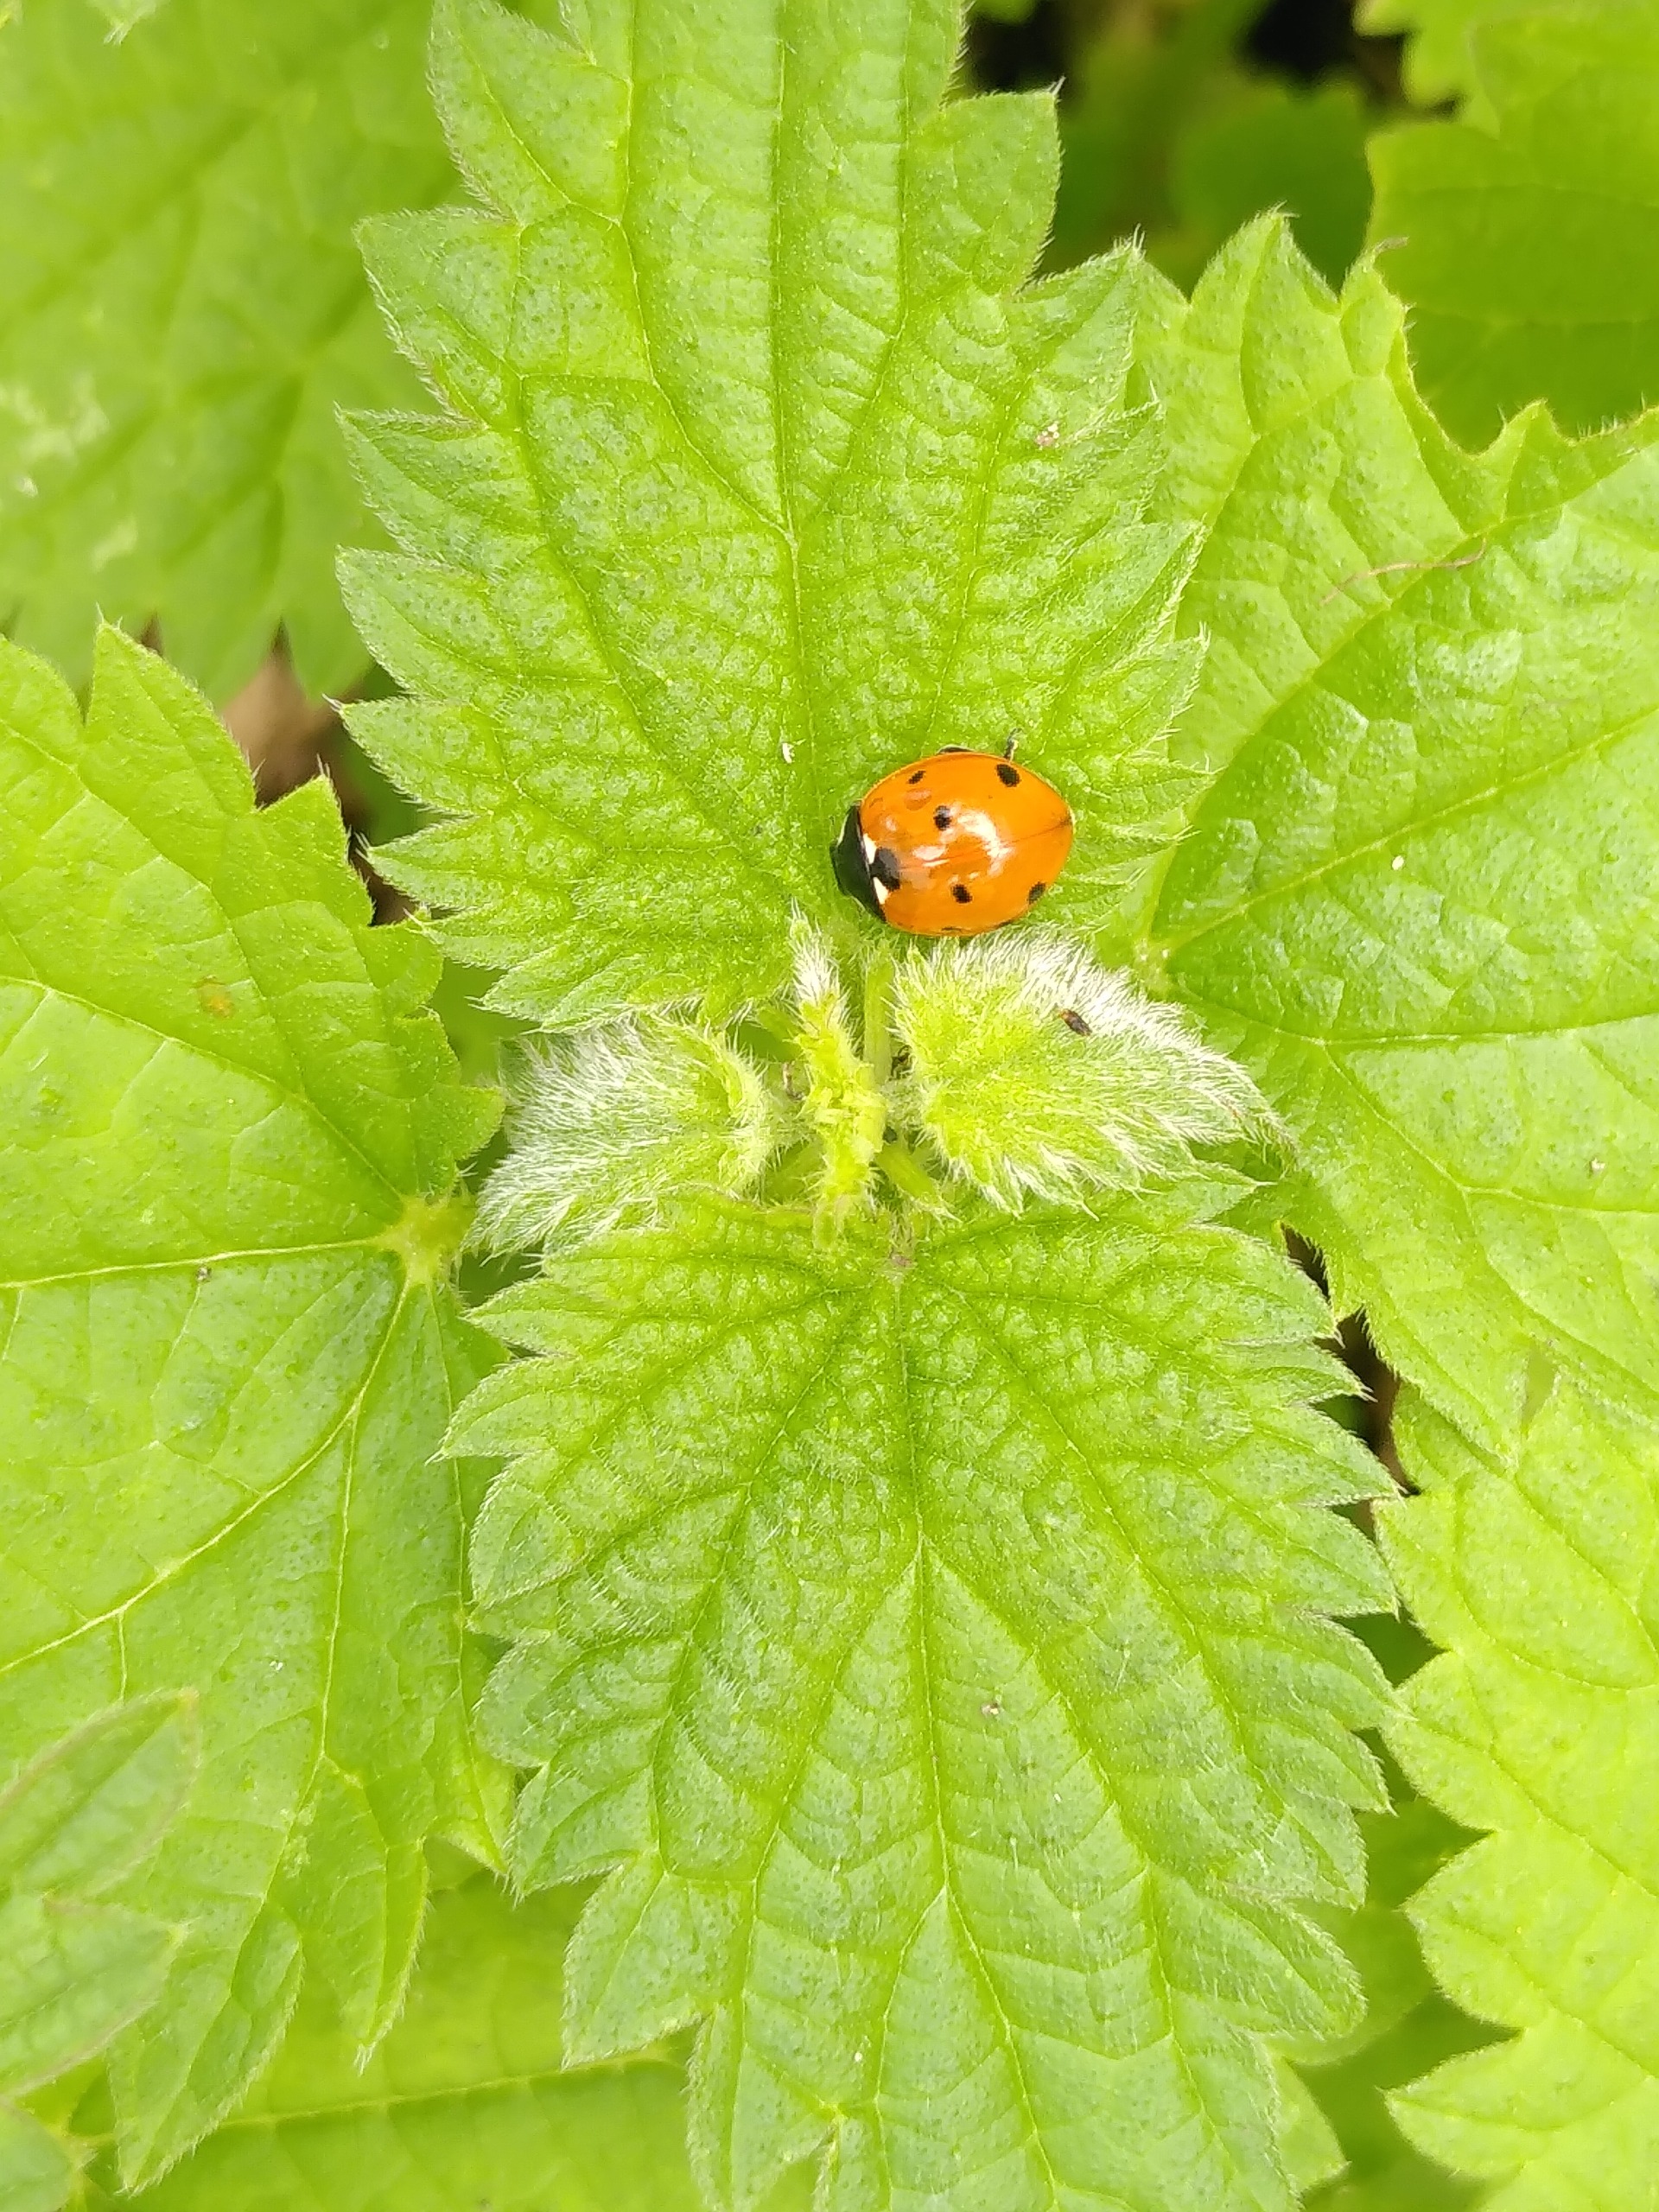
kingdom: Animalia
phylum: Arthropoda
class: Insecta
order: Coleoptera
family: Coccinellidae
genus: Coccinella
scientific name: Coccinella septempunctata
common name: Syvplettet mariehøne
